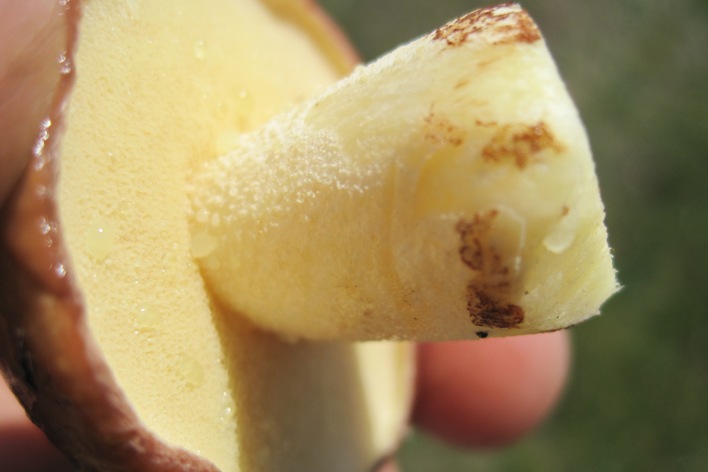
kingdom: Fungi
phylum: Basidiomycota
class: Agaricomycetes
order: Boletales
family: Suillaceae
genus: Suillus
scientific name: Suillus granulatus
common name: kornet slimrørhat
